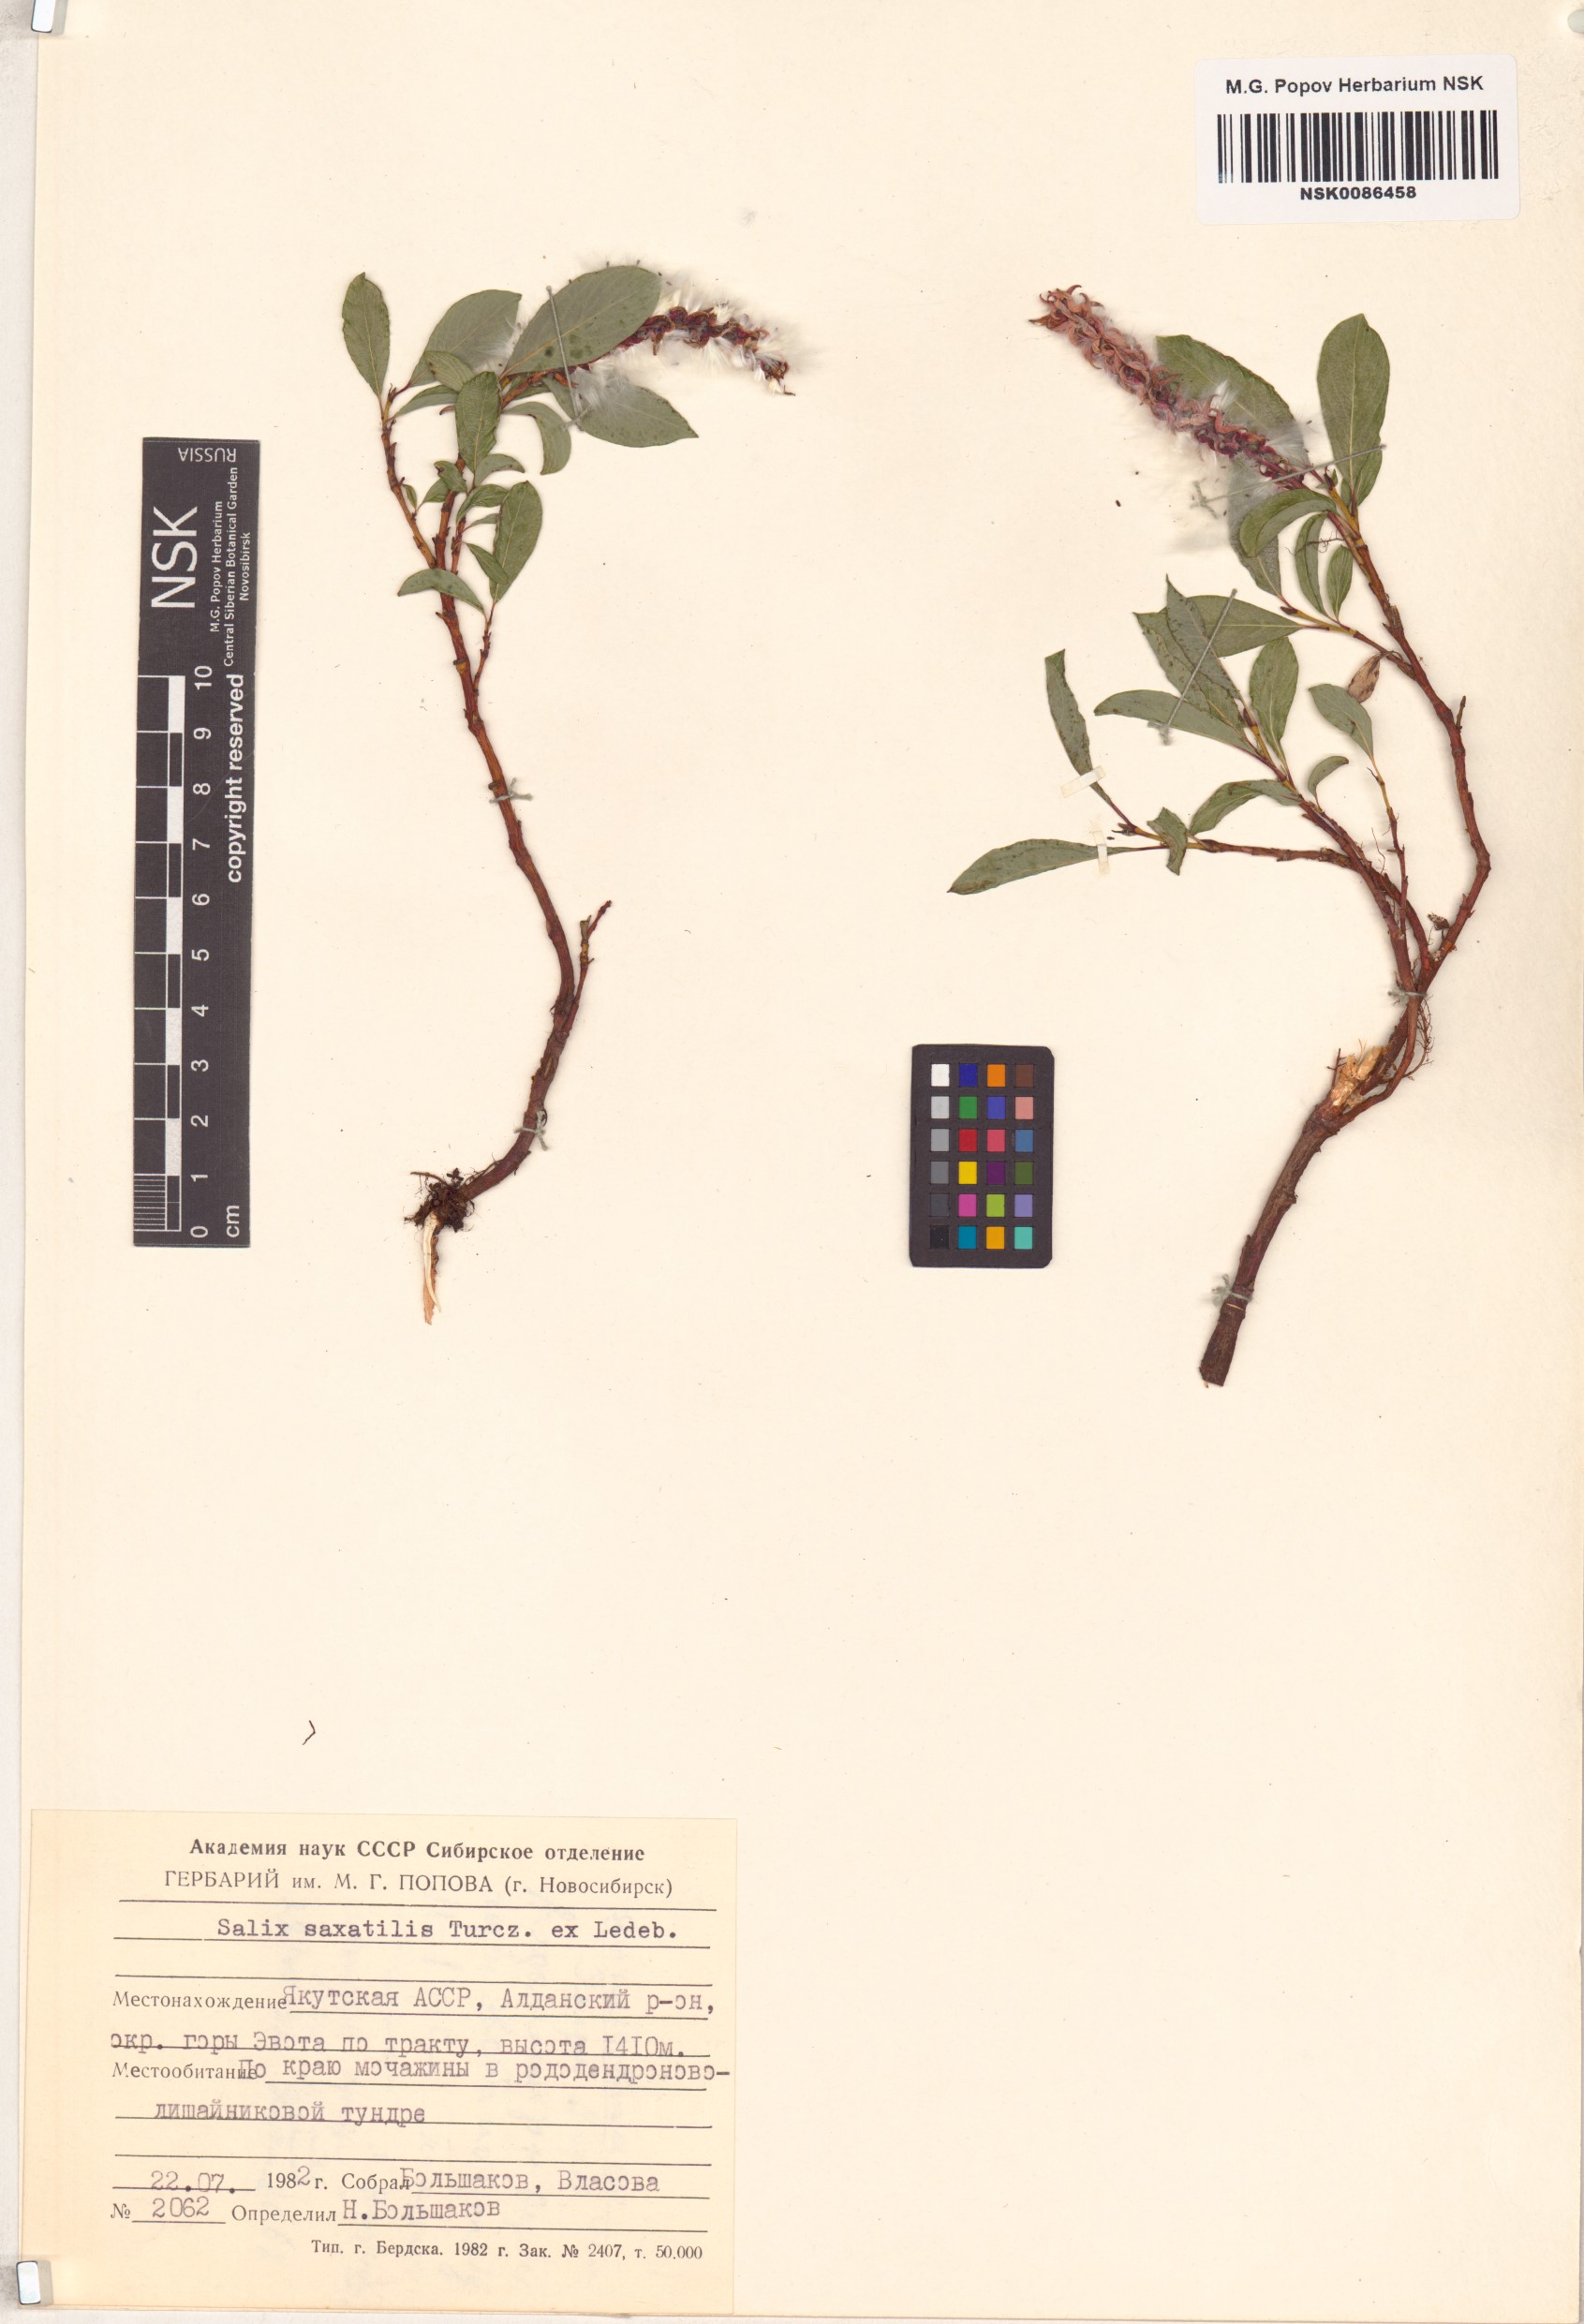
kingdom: Plantae
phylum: Tracheophyta
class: Magnoliopsida
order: Malpighiales
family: Salicaceae
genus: Salix
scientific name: Salix saxatilis
